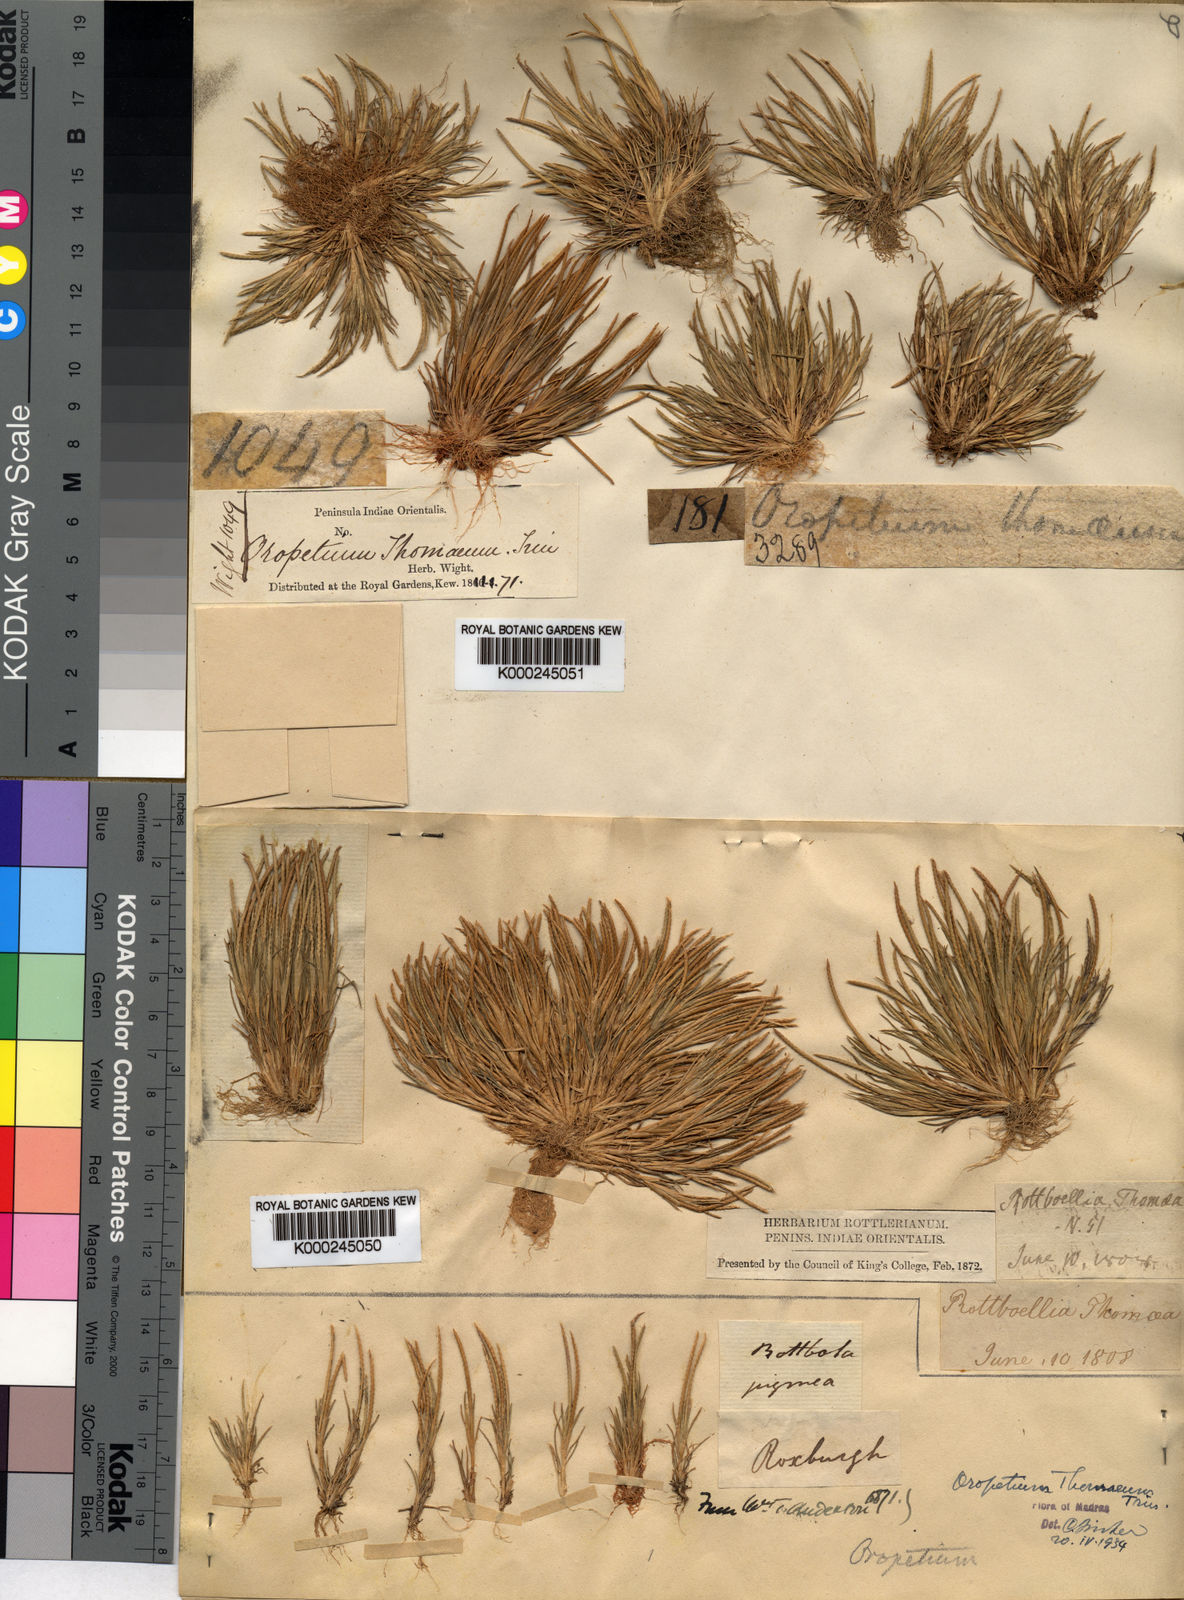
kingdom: Plantae
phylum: Tracheophyta
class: Liliopsida
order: Poales
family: Poaceae
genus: Oropetium
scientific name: Oropetium thomaeum
